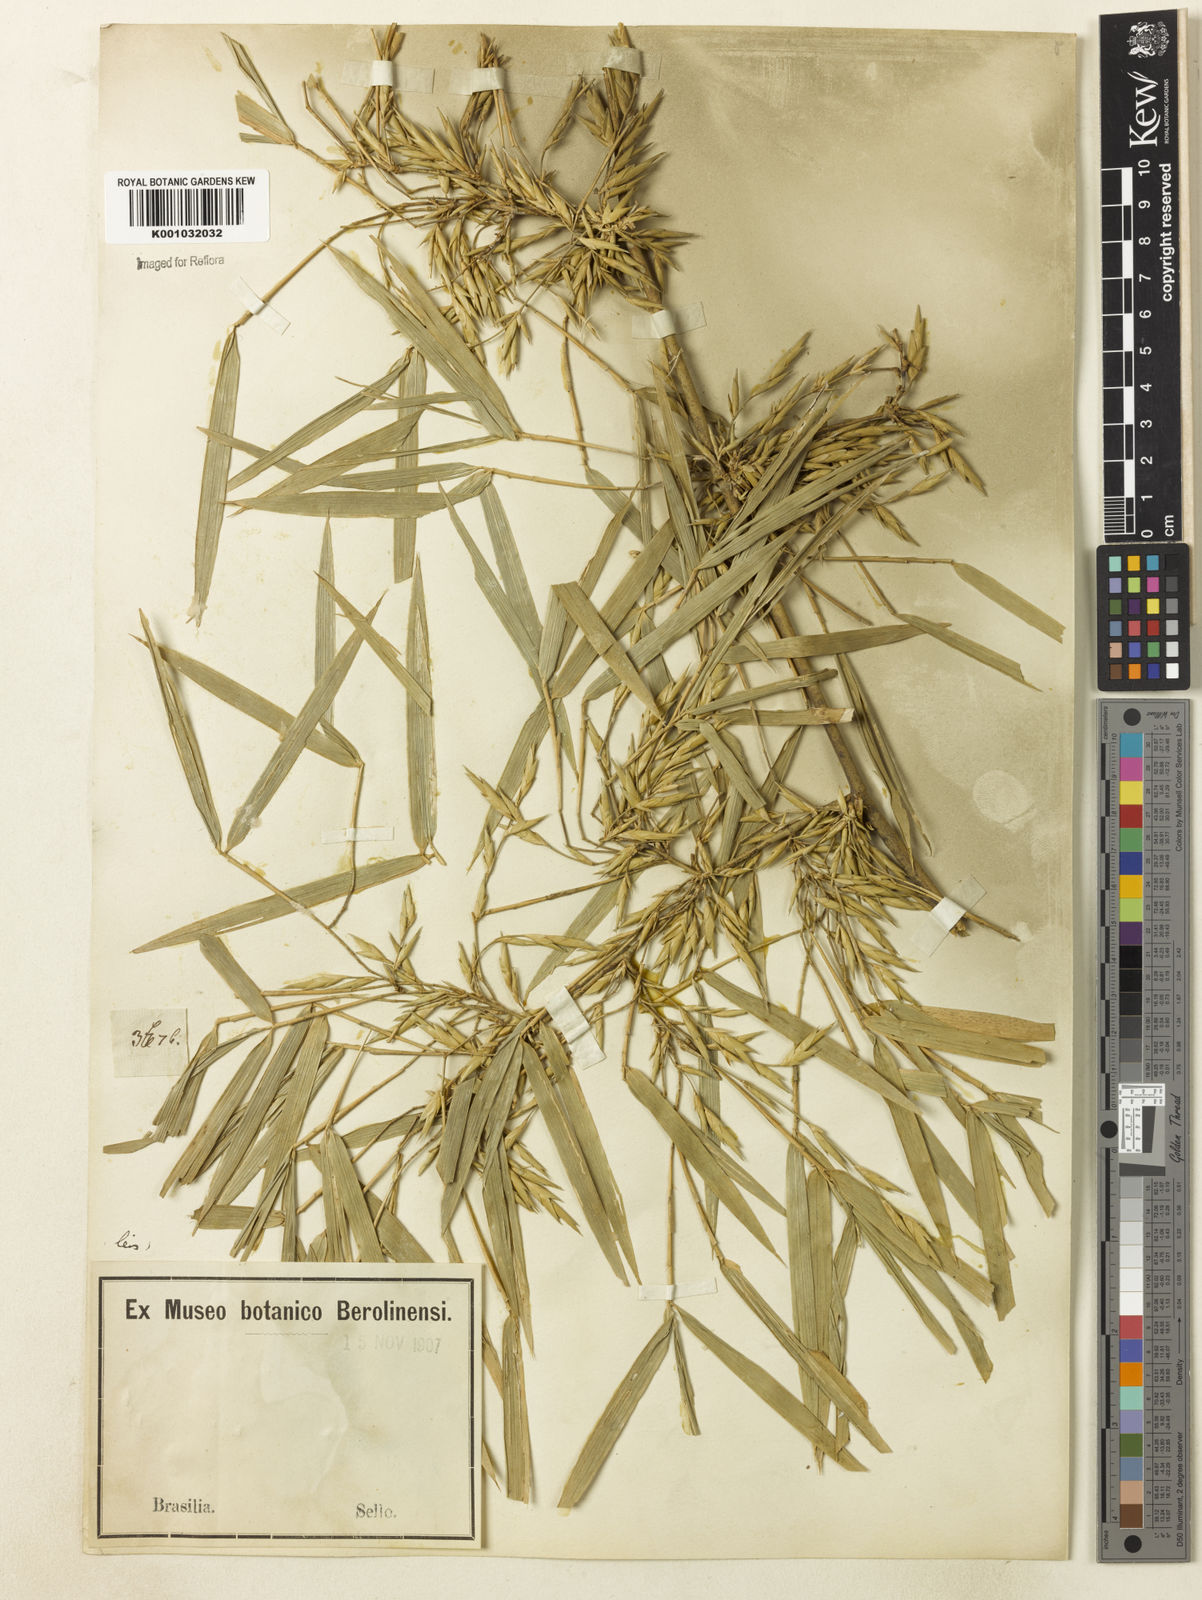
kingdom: Plantae
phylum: Tracheophyta
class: Liliopsida
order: Poales
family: Poaceae
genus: Bambusa
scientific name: Bambusa vulgaris
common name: Common bamboo
